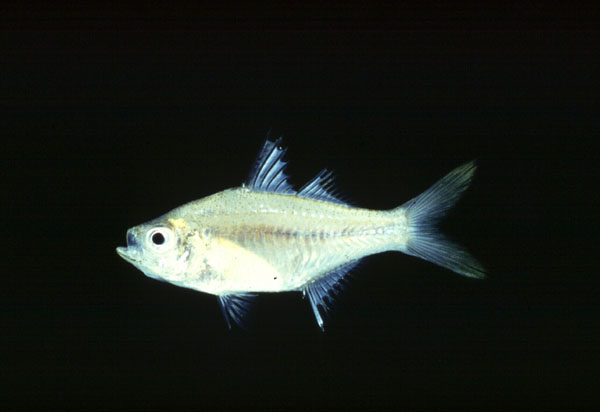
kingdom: Animalia
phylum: Chordata
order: Perciformes
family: Ambassidae
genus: Ambassis
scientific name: Ambassis gymnocephalus
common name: Bald glassy
